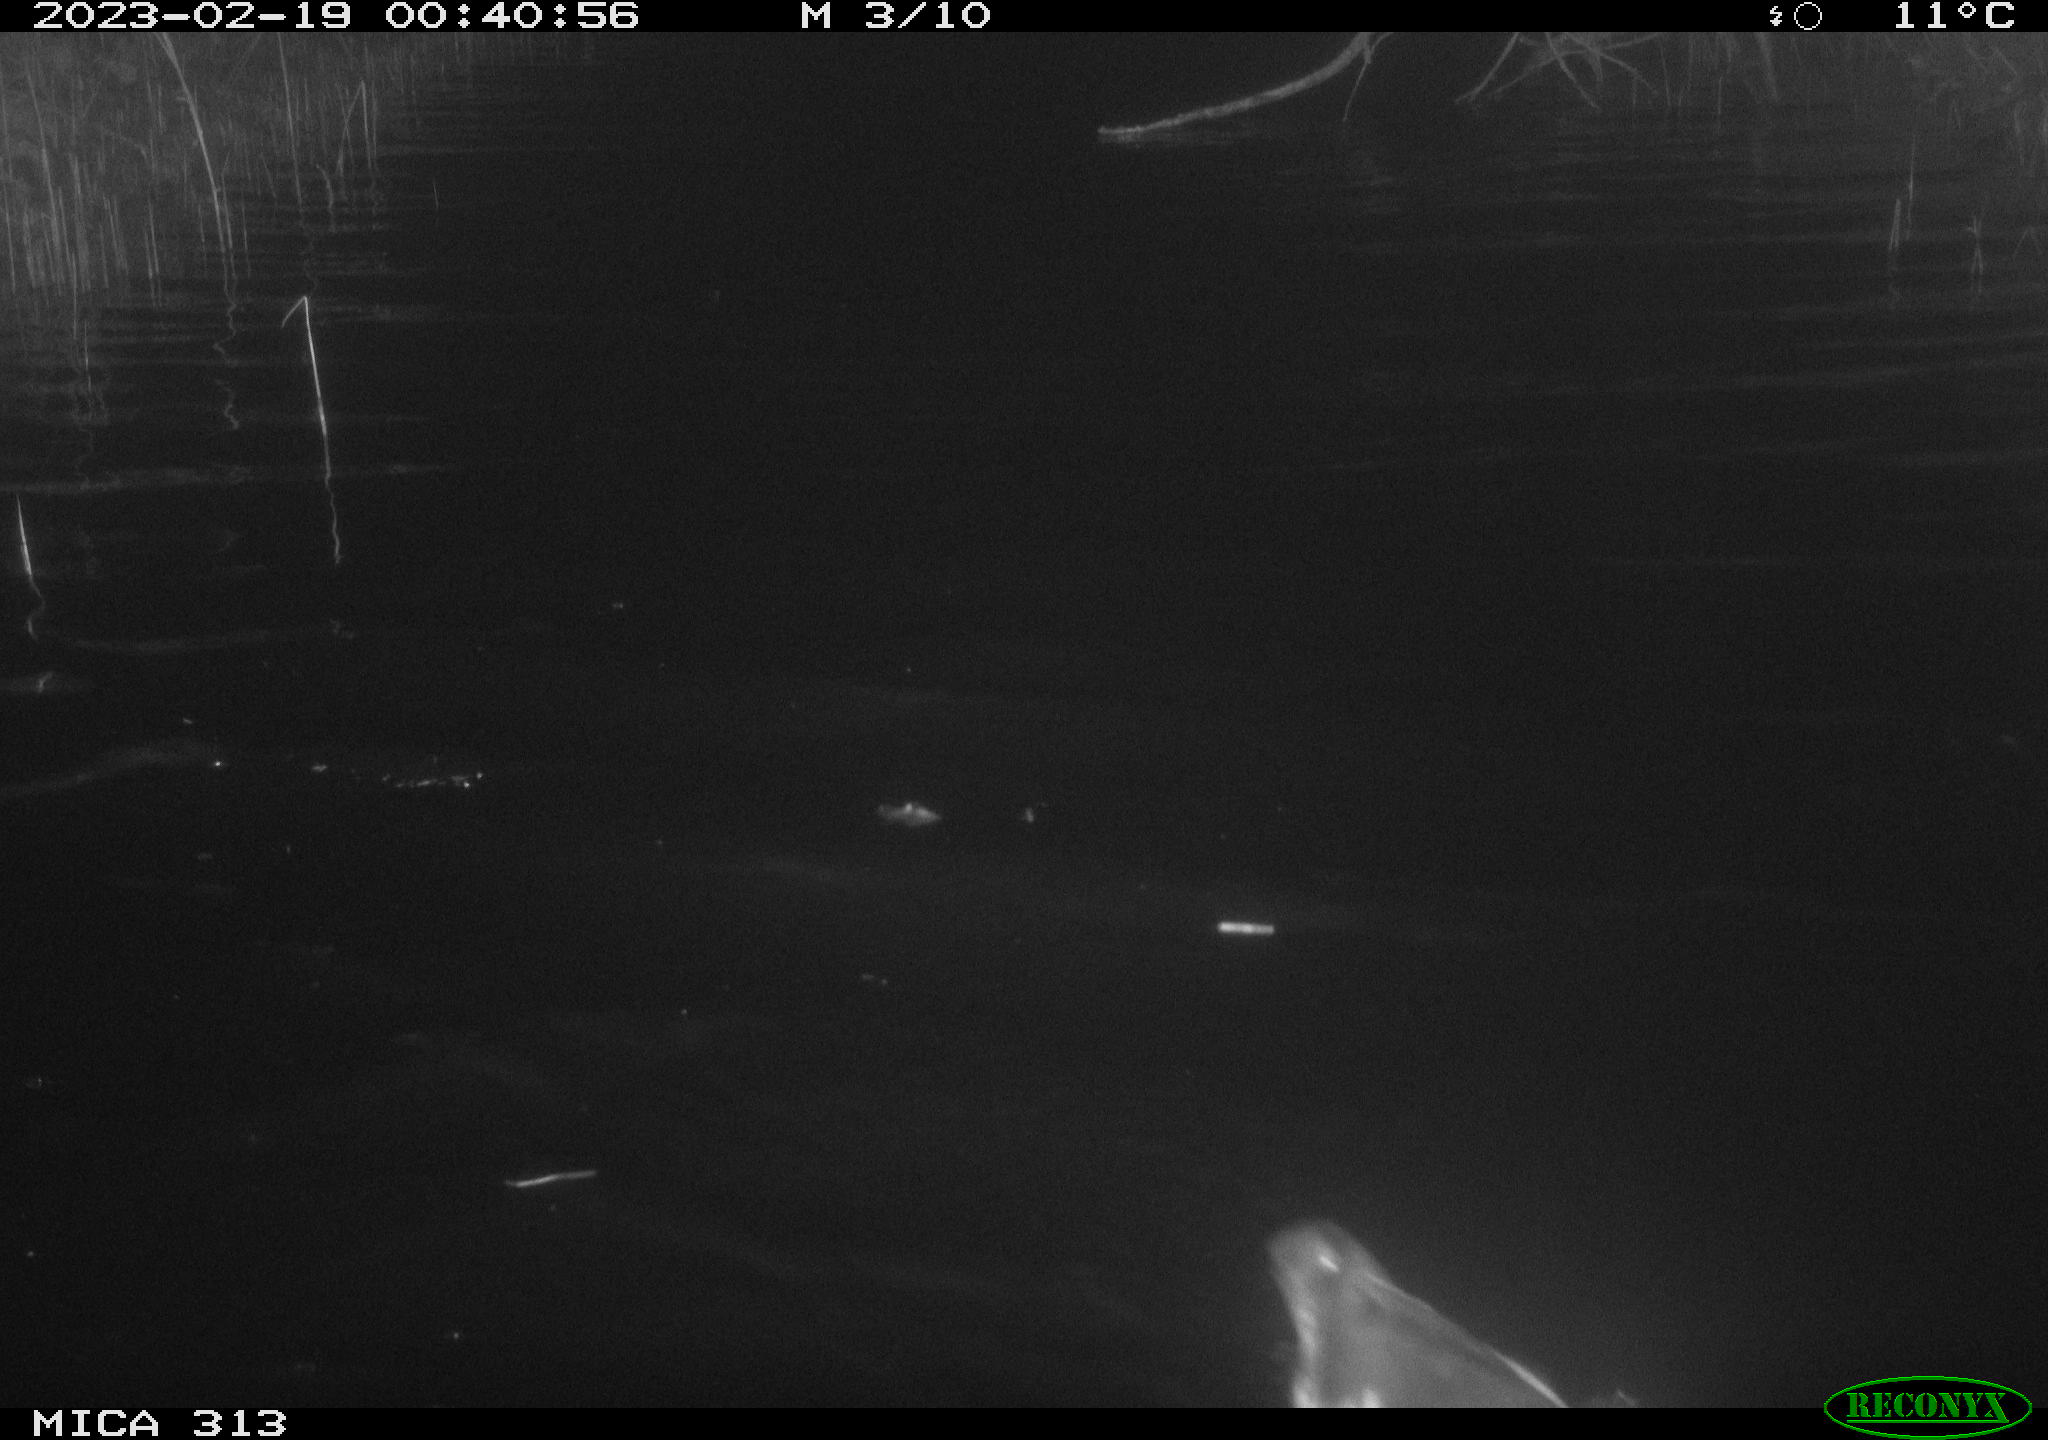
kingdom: Animalia
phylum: Chordata
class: Aves
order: Gruiformes
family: Rallidae
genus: Gallinula
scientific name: Gallinula chloropus
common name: Common moorhen
